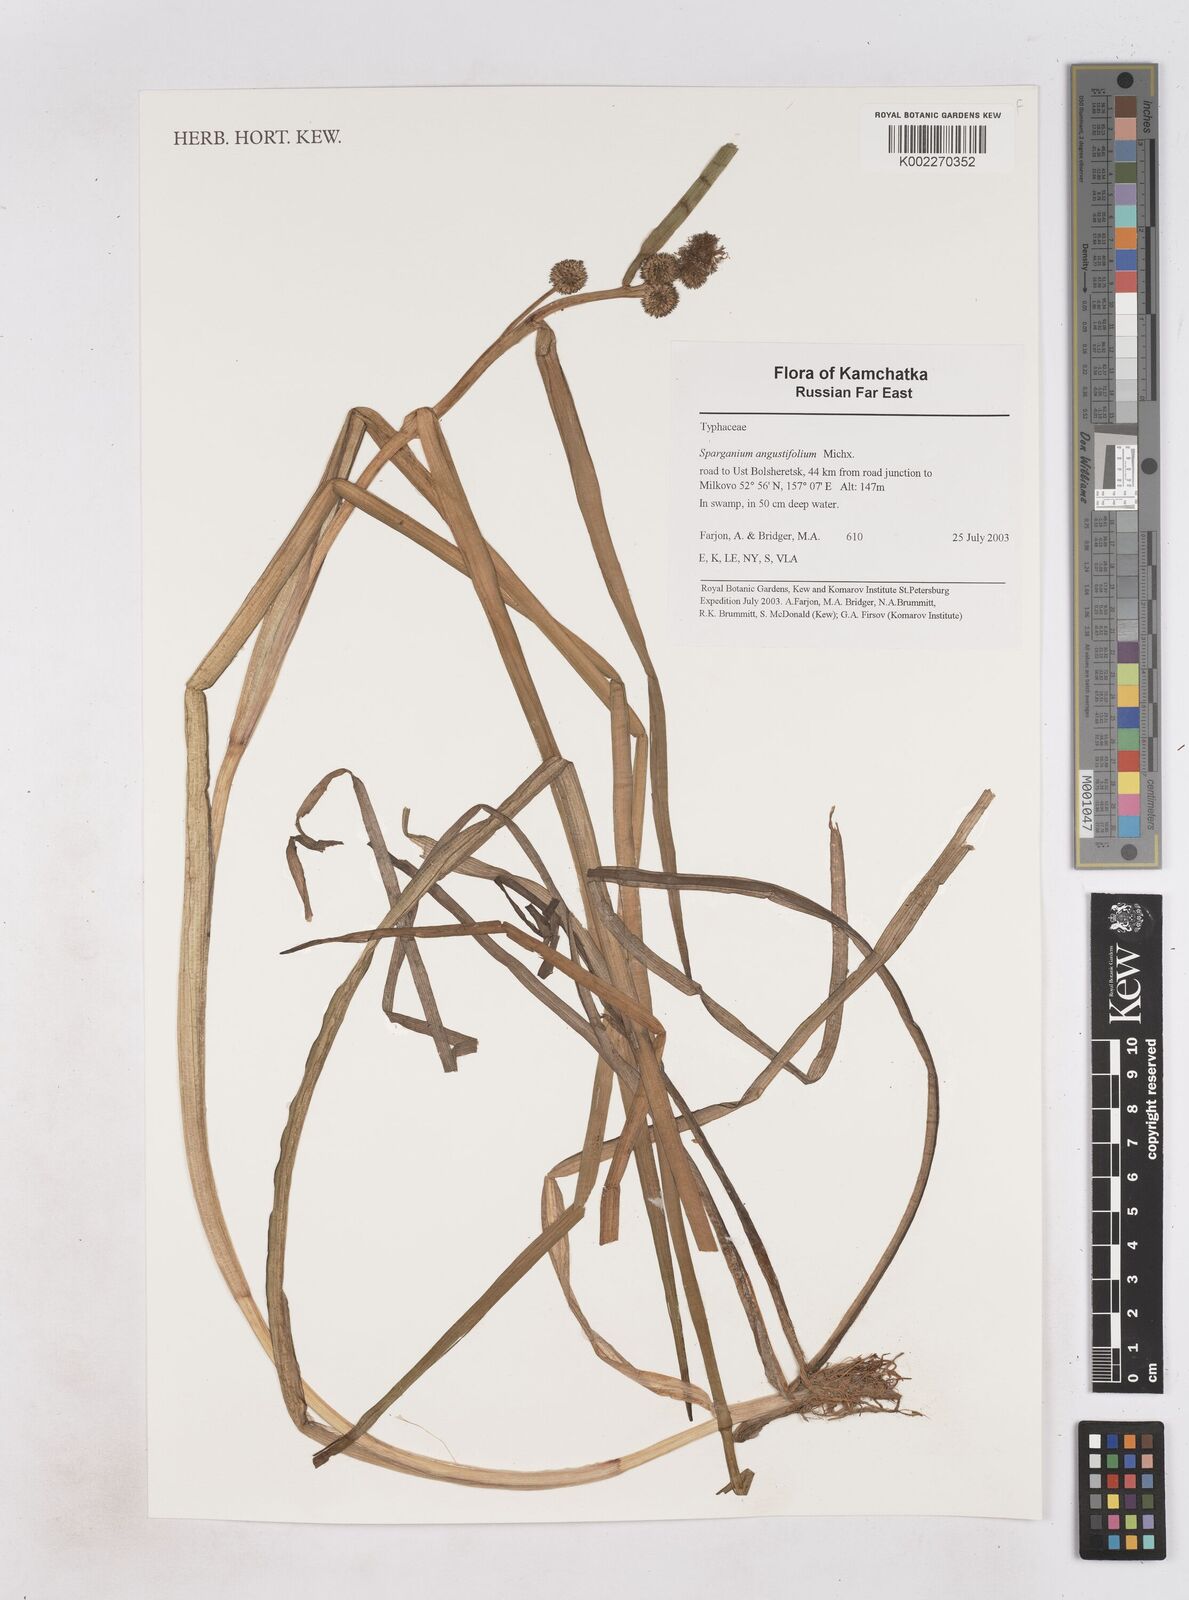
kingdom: Plantae
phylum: Tracheophyta
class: Liliopsida
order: Poales
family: Typhaceae
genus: Sparganium
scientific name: Sparganium angustifolium
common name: Floating bur-reed
